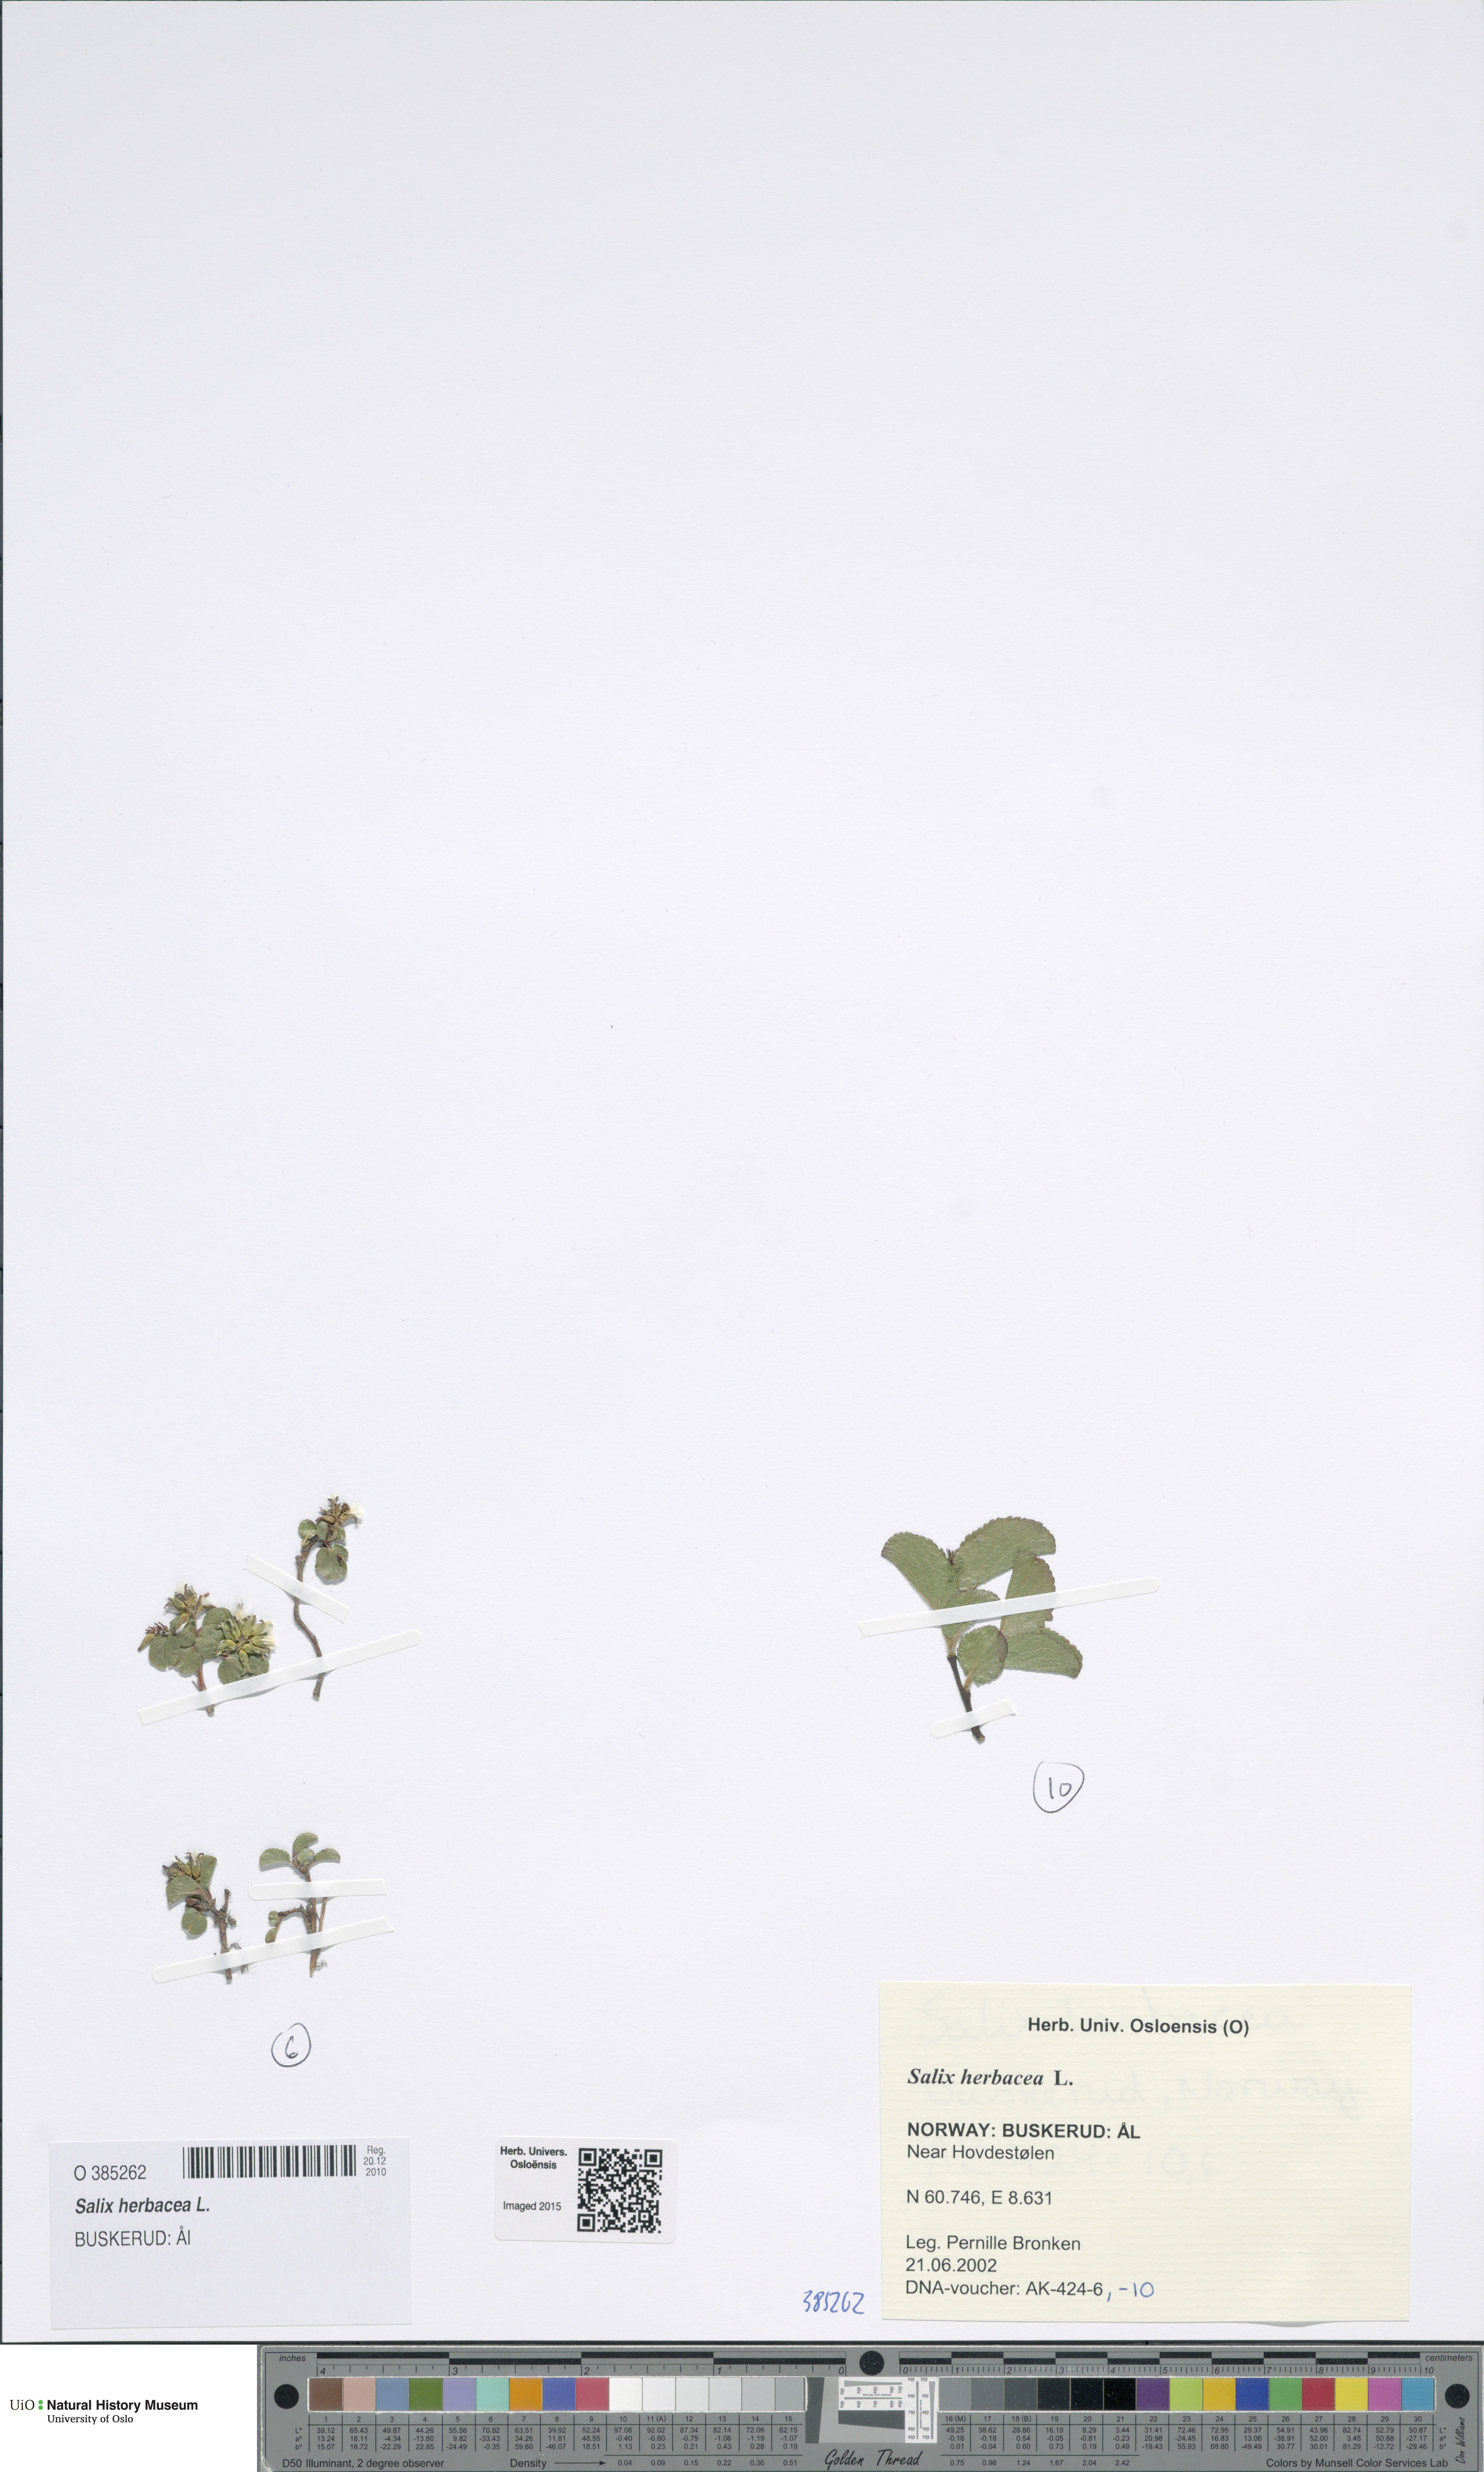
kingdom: Plantae
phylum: Tracheophyta
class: Magnoliopsida
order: Malpighiales
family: Salicaceae
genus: Salix
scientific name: Salix herbacea
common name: Dwarf willow
